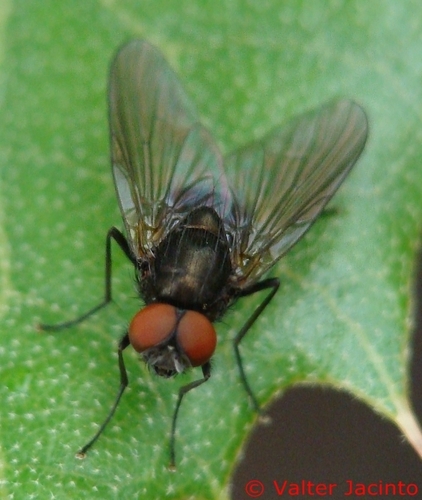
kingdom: Animalia
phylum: Arthropoda
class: Insecta
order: Diptera
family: Muscidae
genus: Hebecnema
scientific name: Hebecnema fumosa
